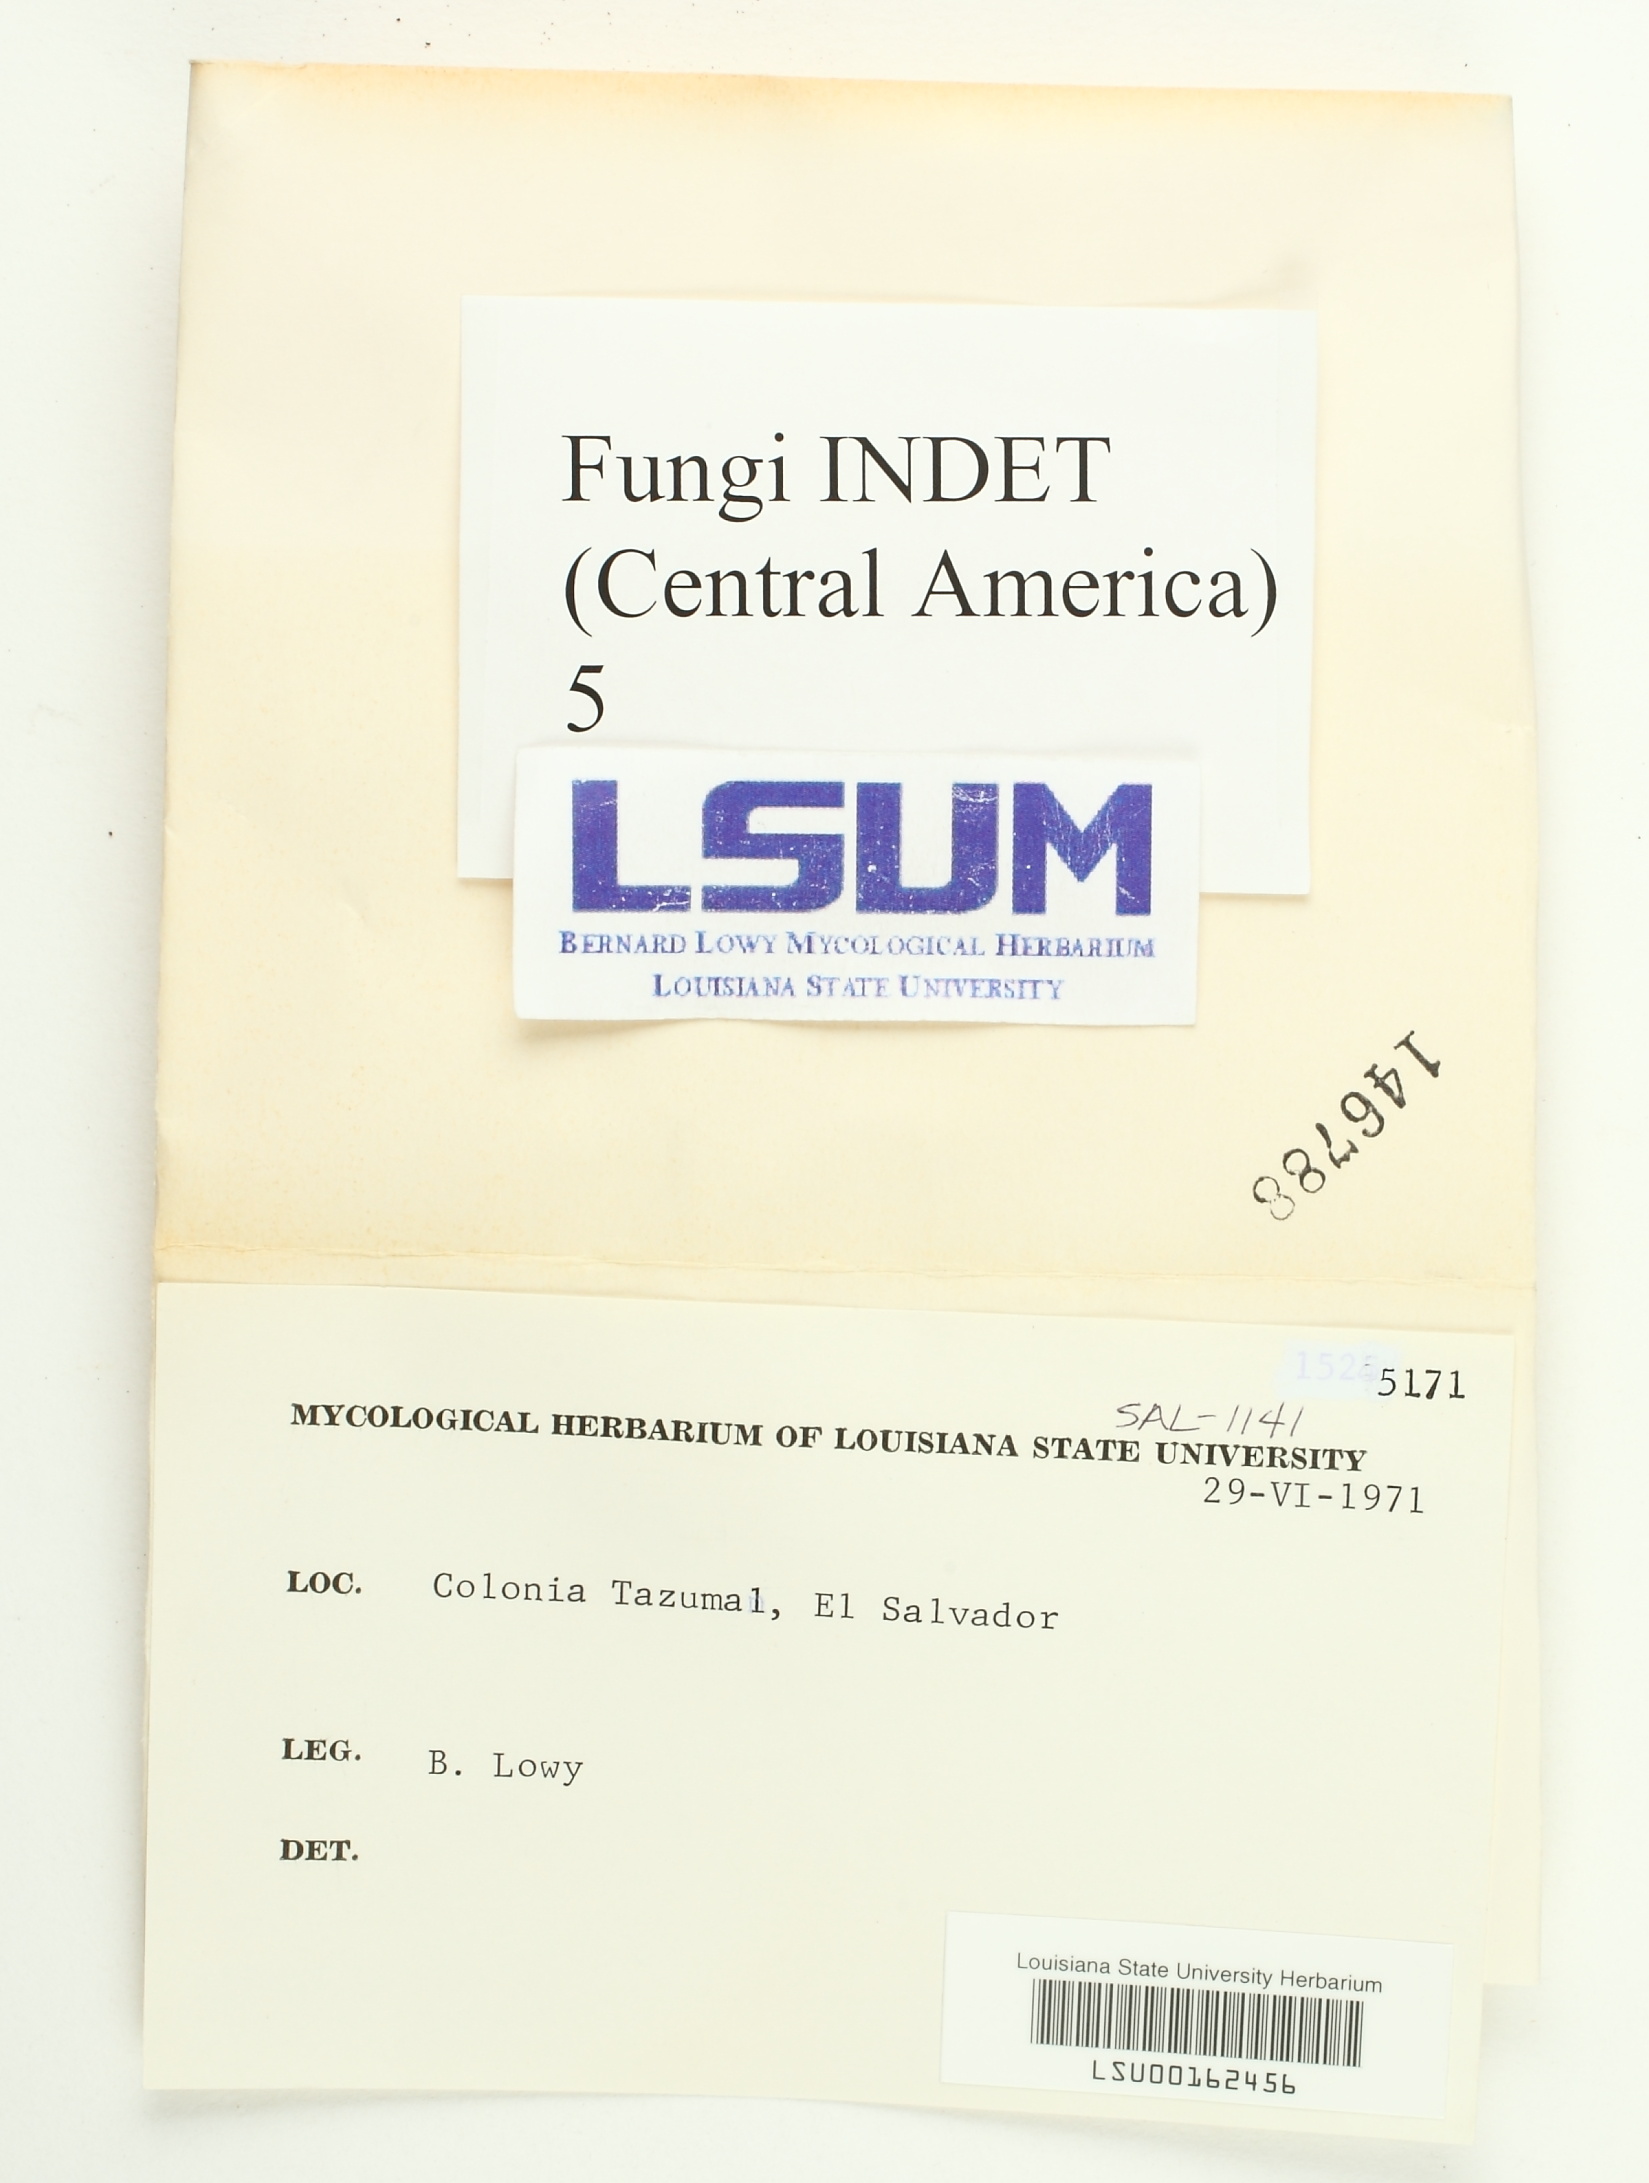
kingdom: Fungi
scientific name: Fungi
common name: Fungi
